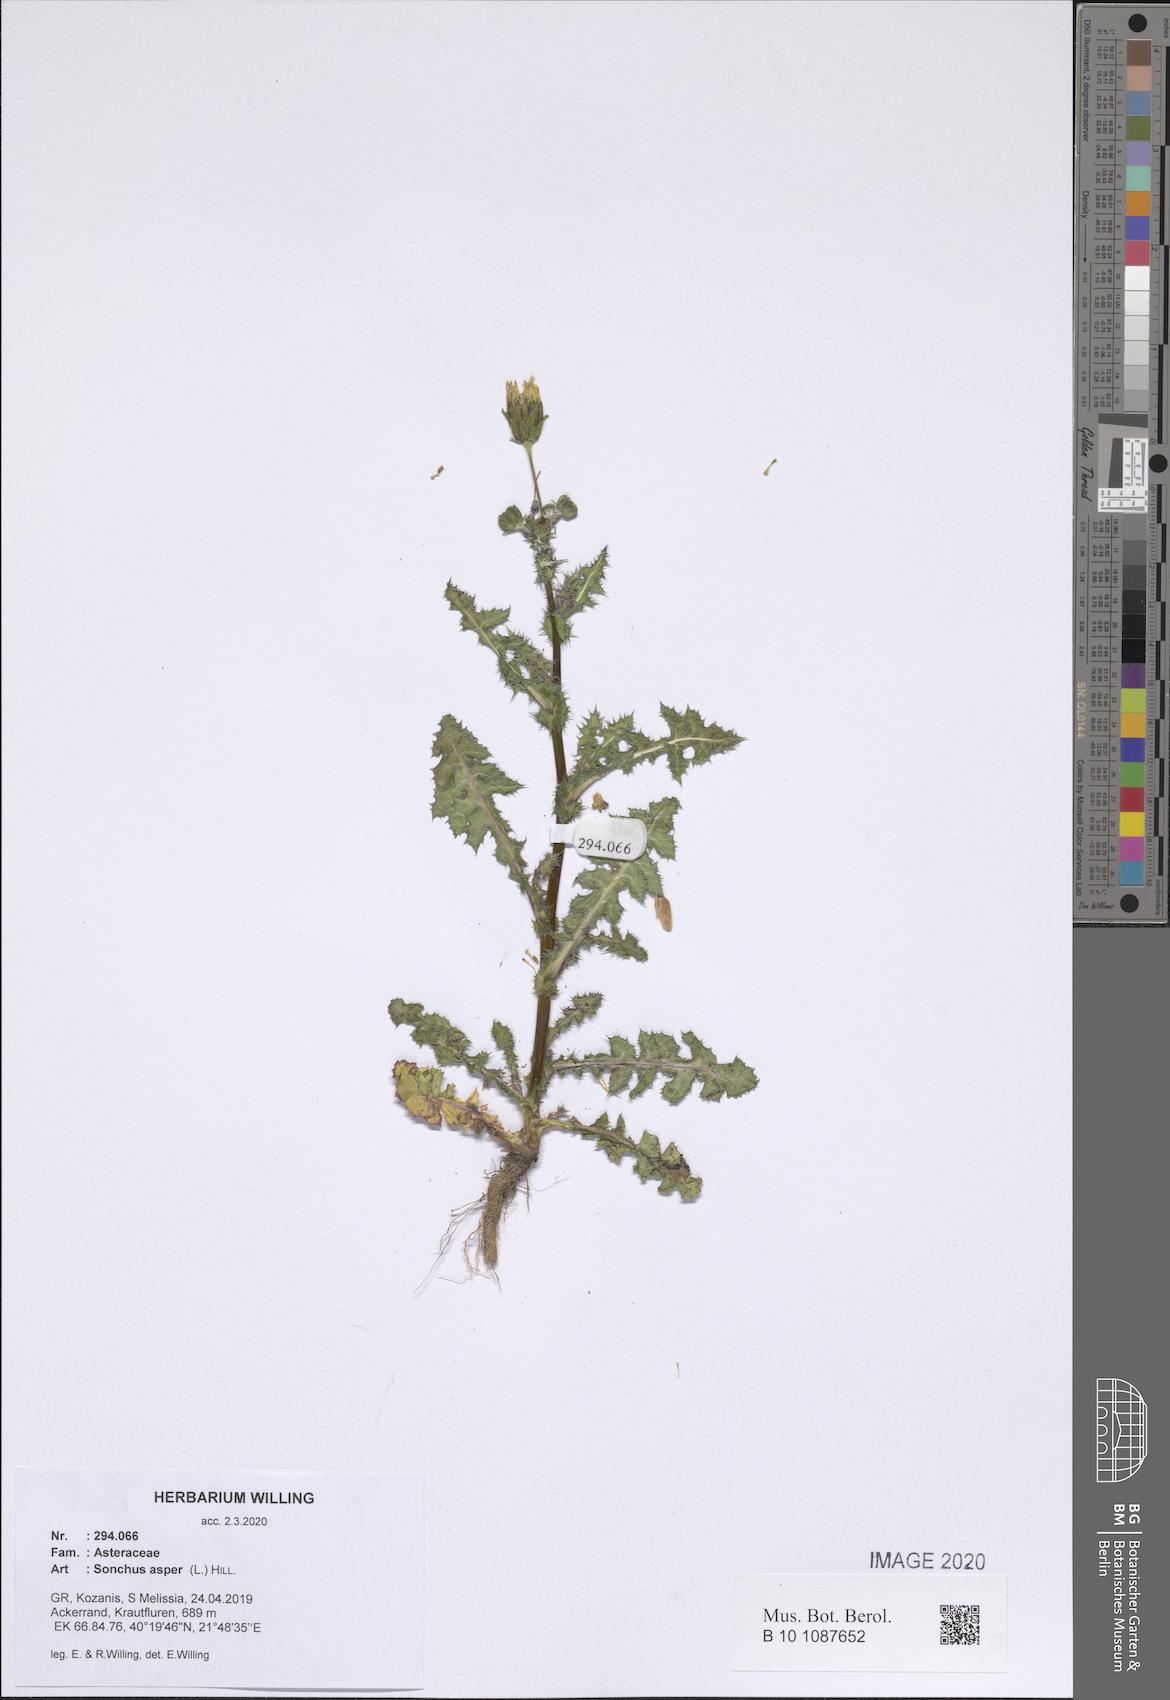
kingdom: Plantae
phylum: Tracheophyta
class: Magnoliopsida
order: Asterales
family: Asteraceae
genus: Sonchus
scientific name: Sonchus asper
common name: Prickly sow-thistle
